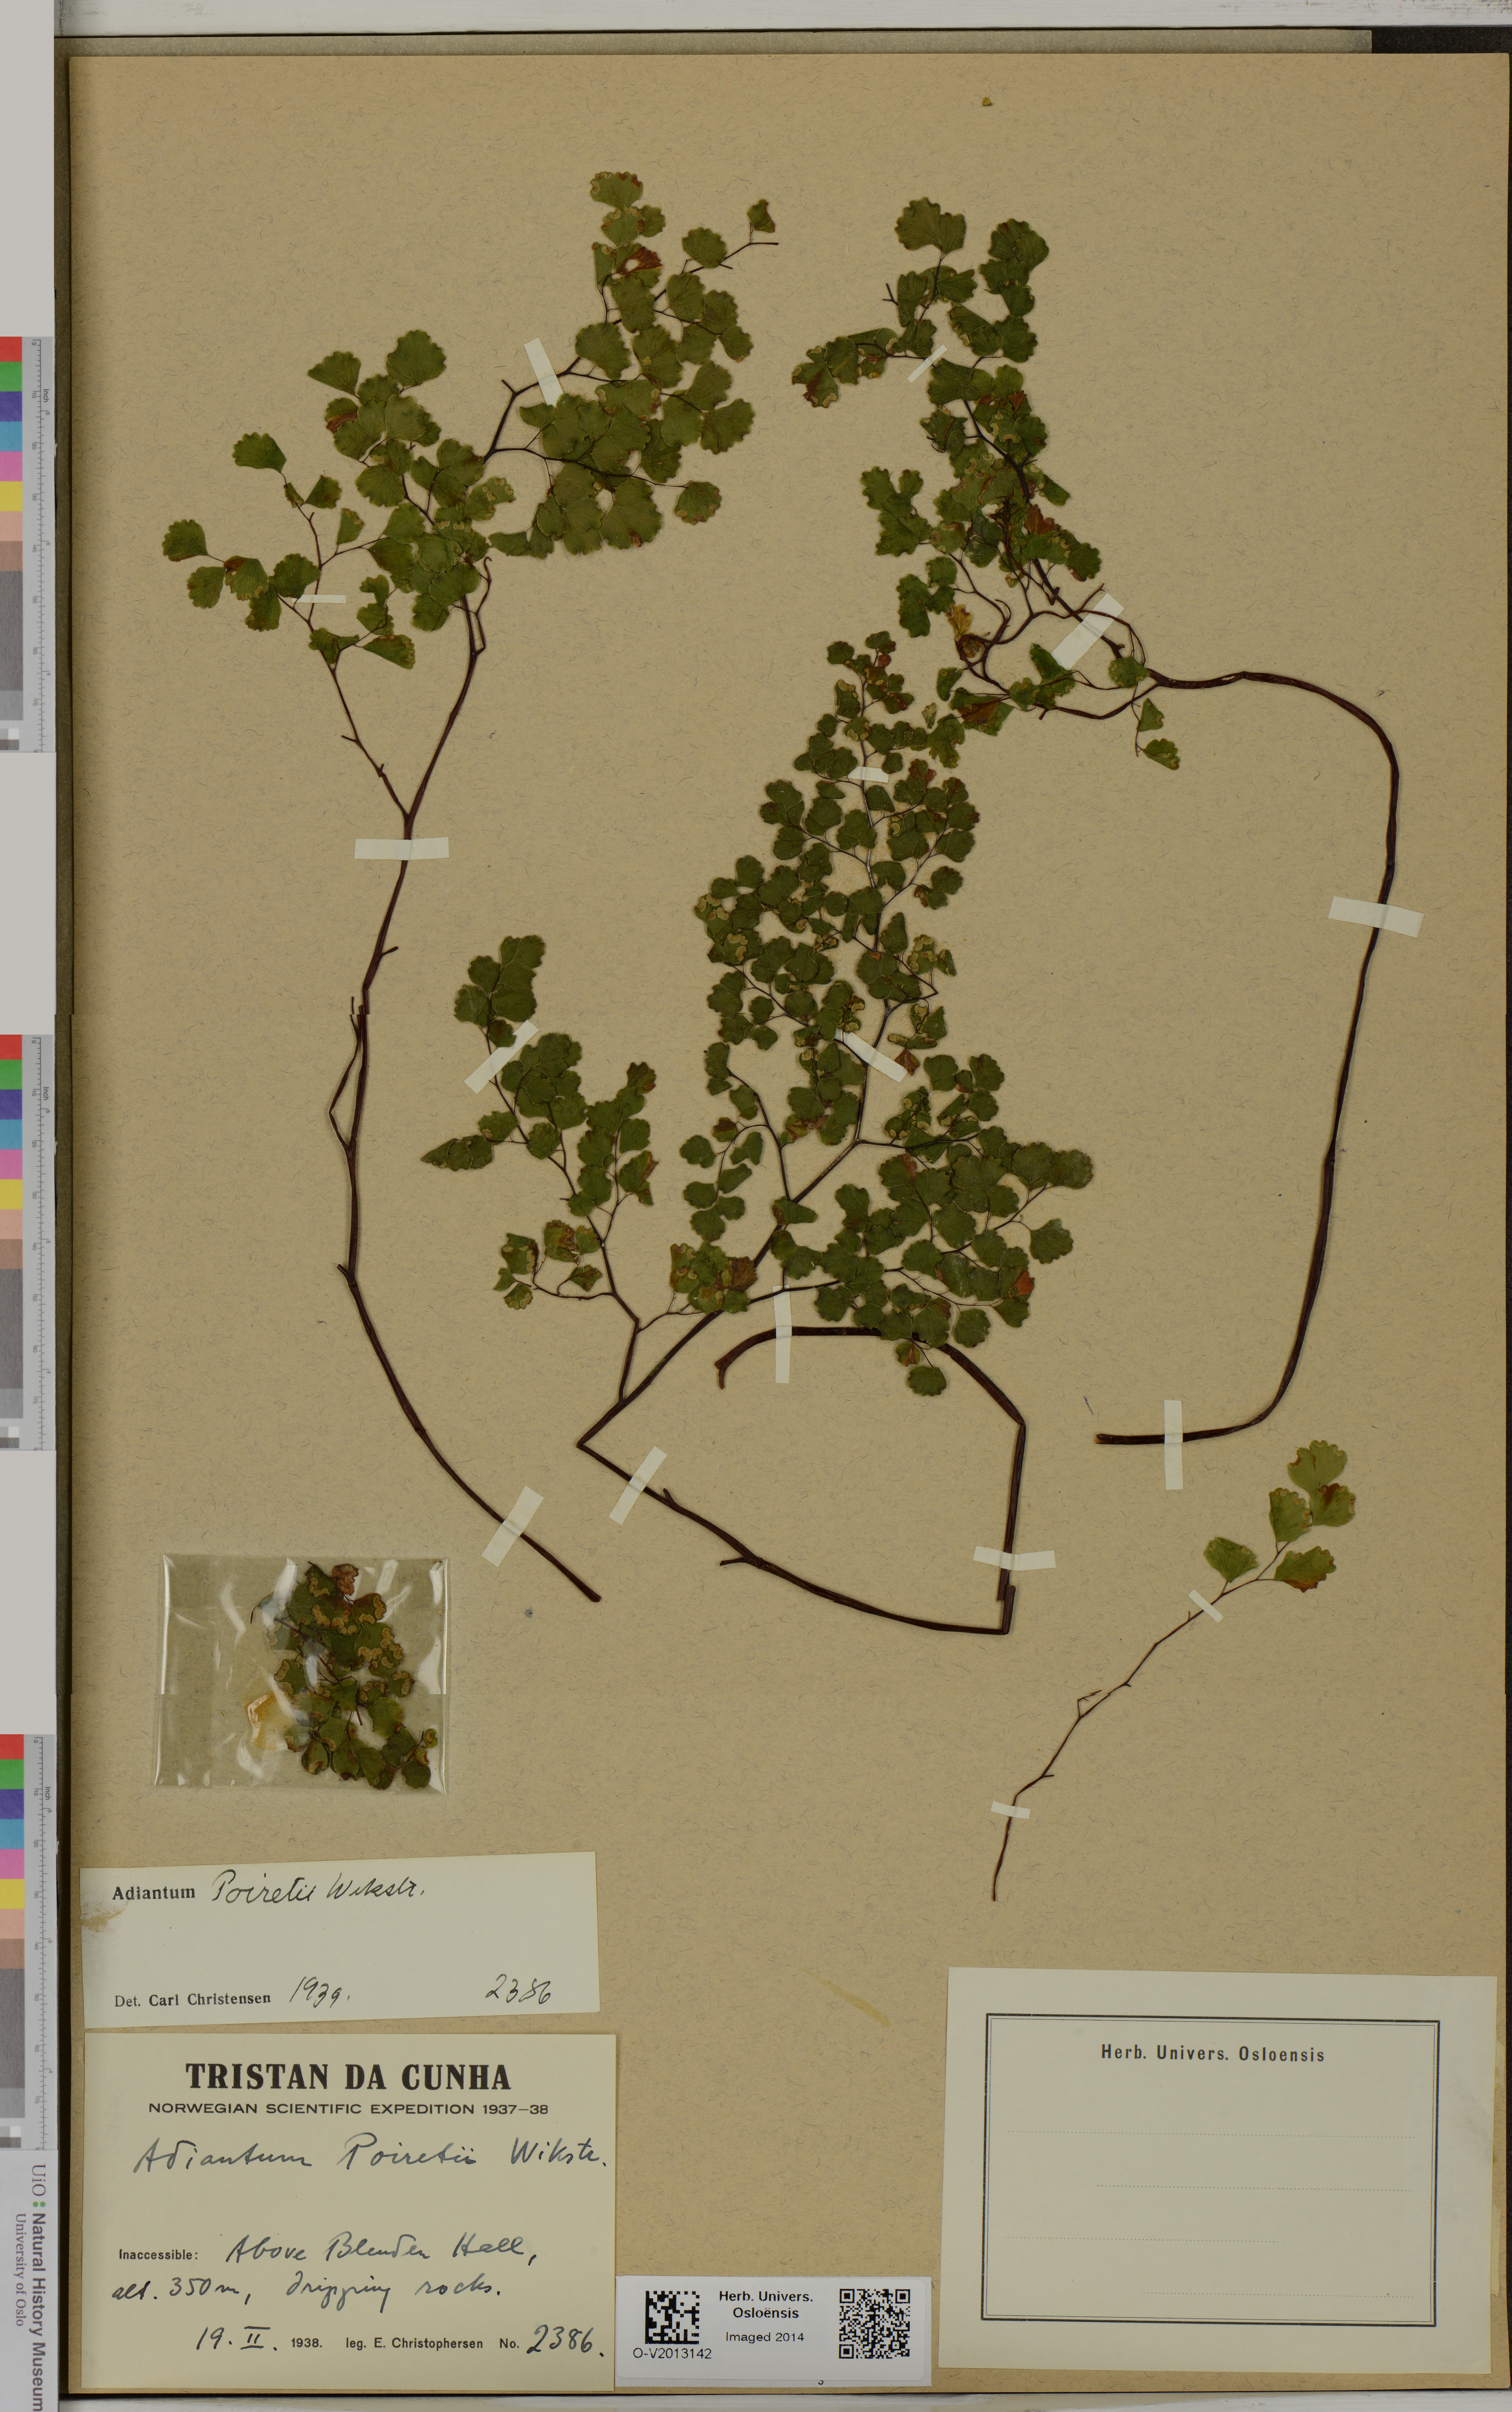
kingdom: Plantae
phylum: Tracheophyta
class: Polypodiopsida
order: Polypodiales
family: Pteridaceae
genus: Adiantum
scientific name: Adiantum poiretii
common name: Mexican maidenhair
